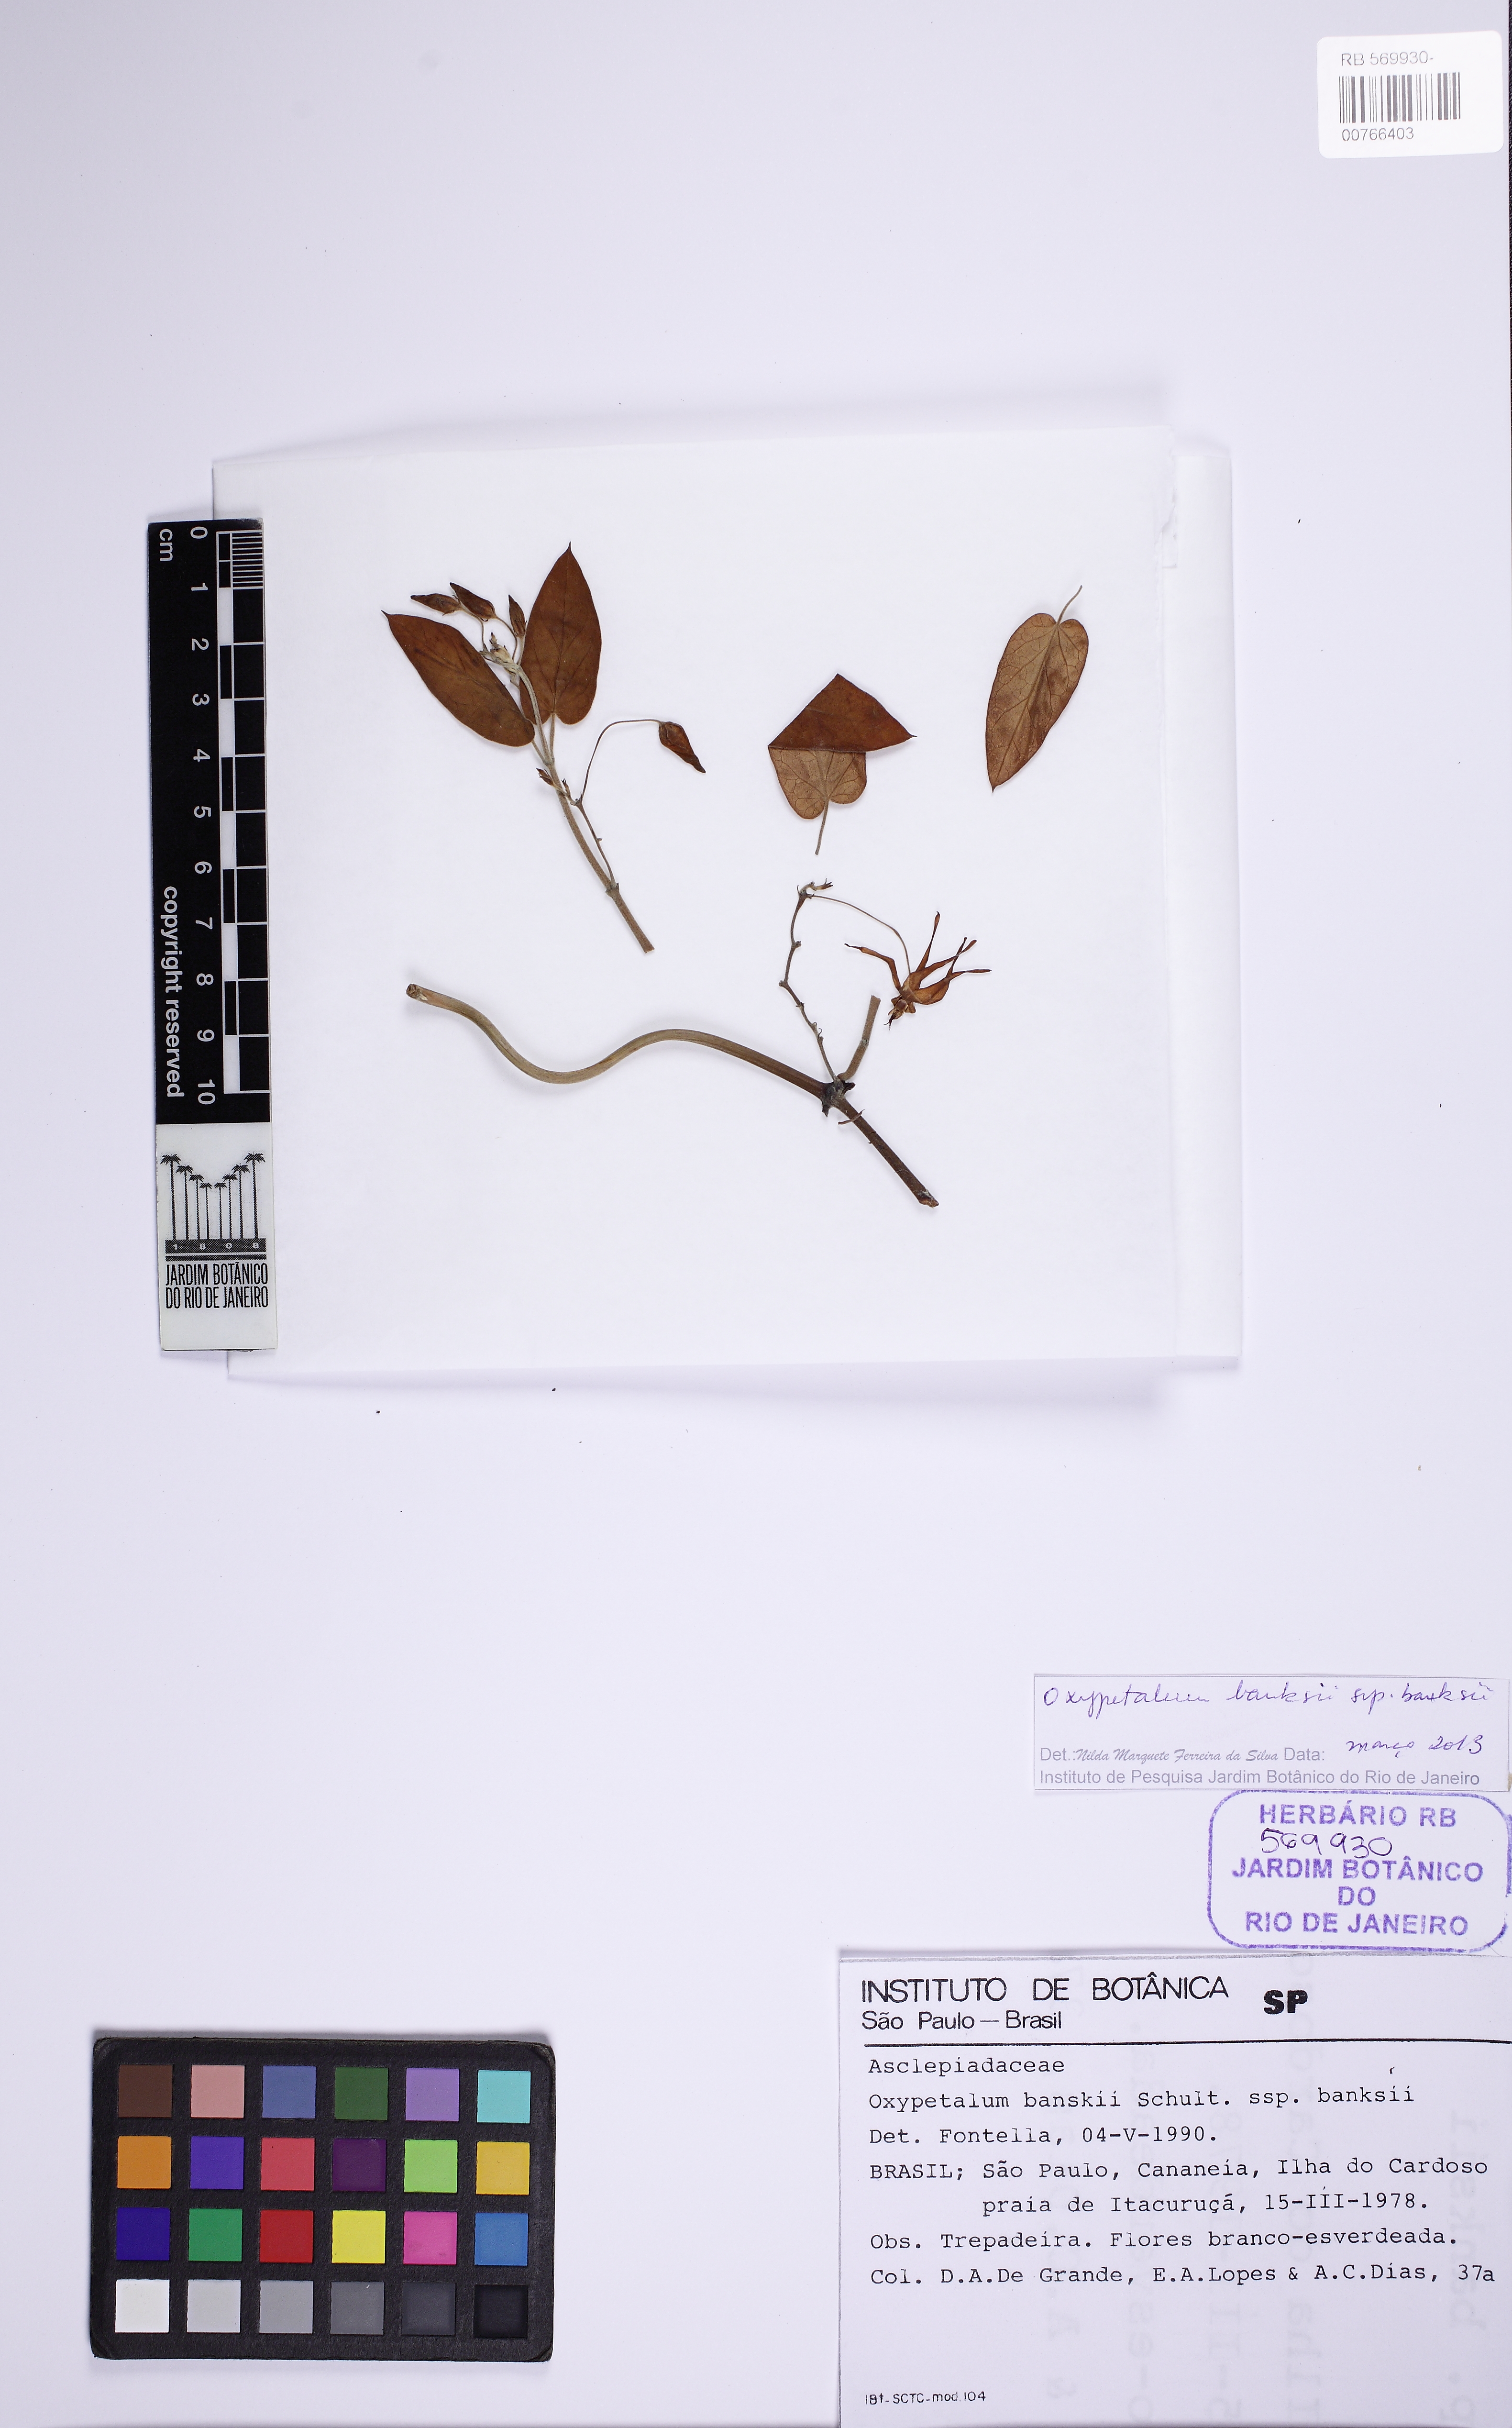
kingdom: Plantae
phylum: Tracheophyta
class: Magnoliopsida
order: Gentianales
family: Apocynaceae
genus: Oxypetalum
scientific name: Oxypetalum banksii
